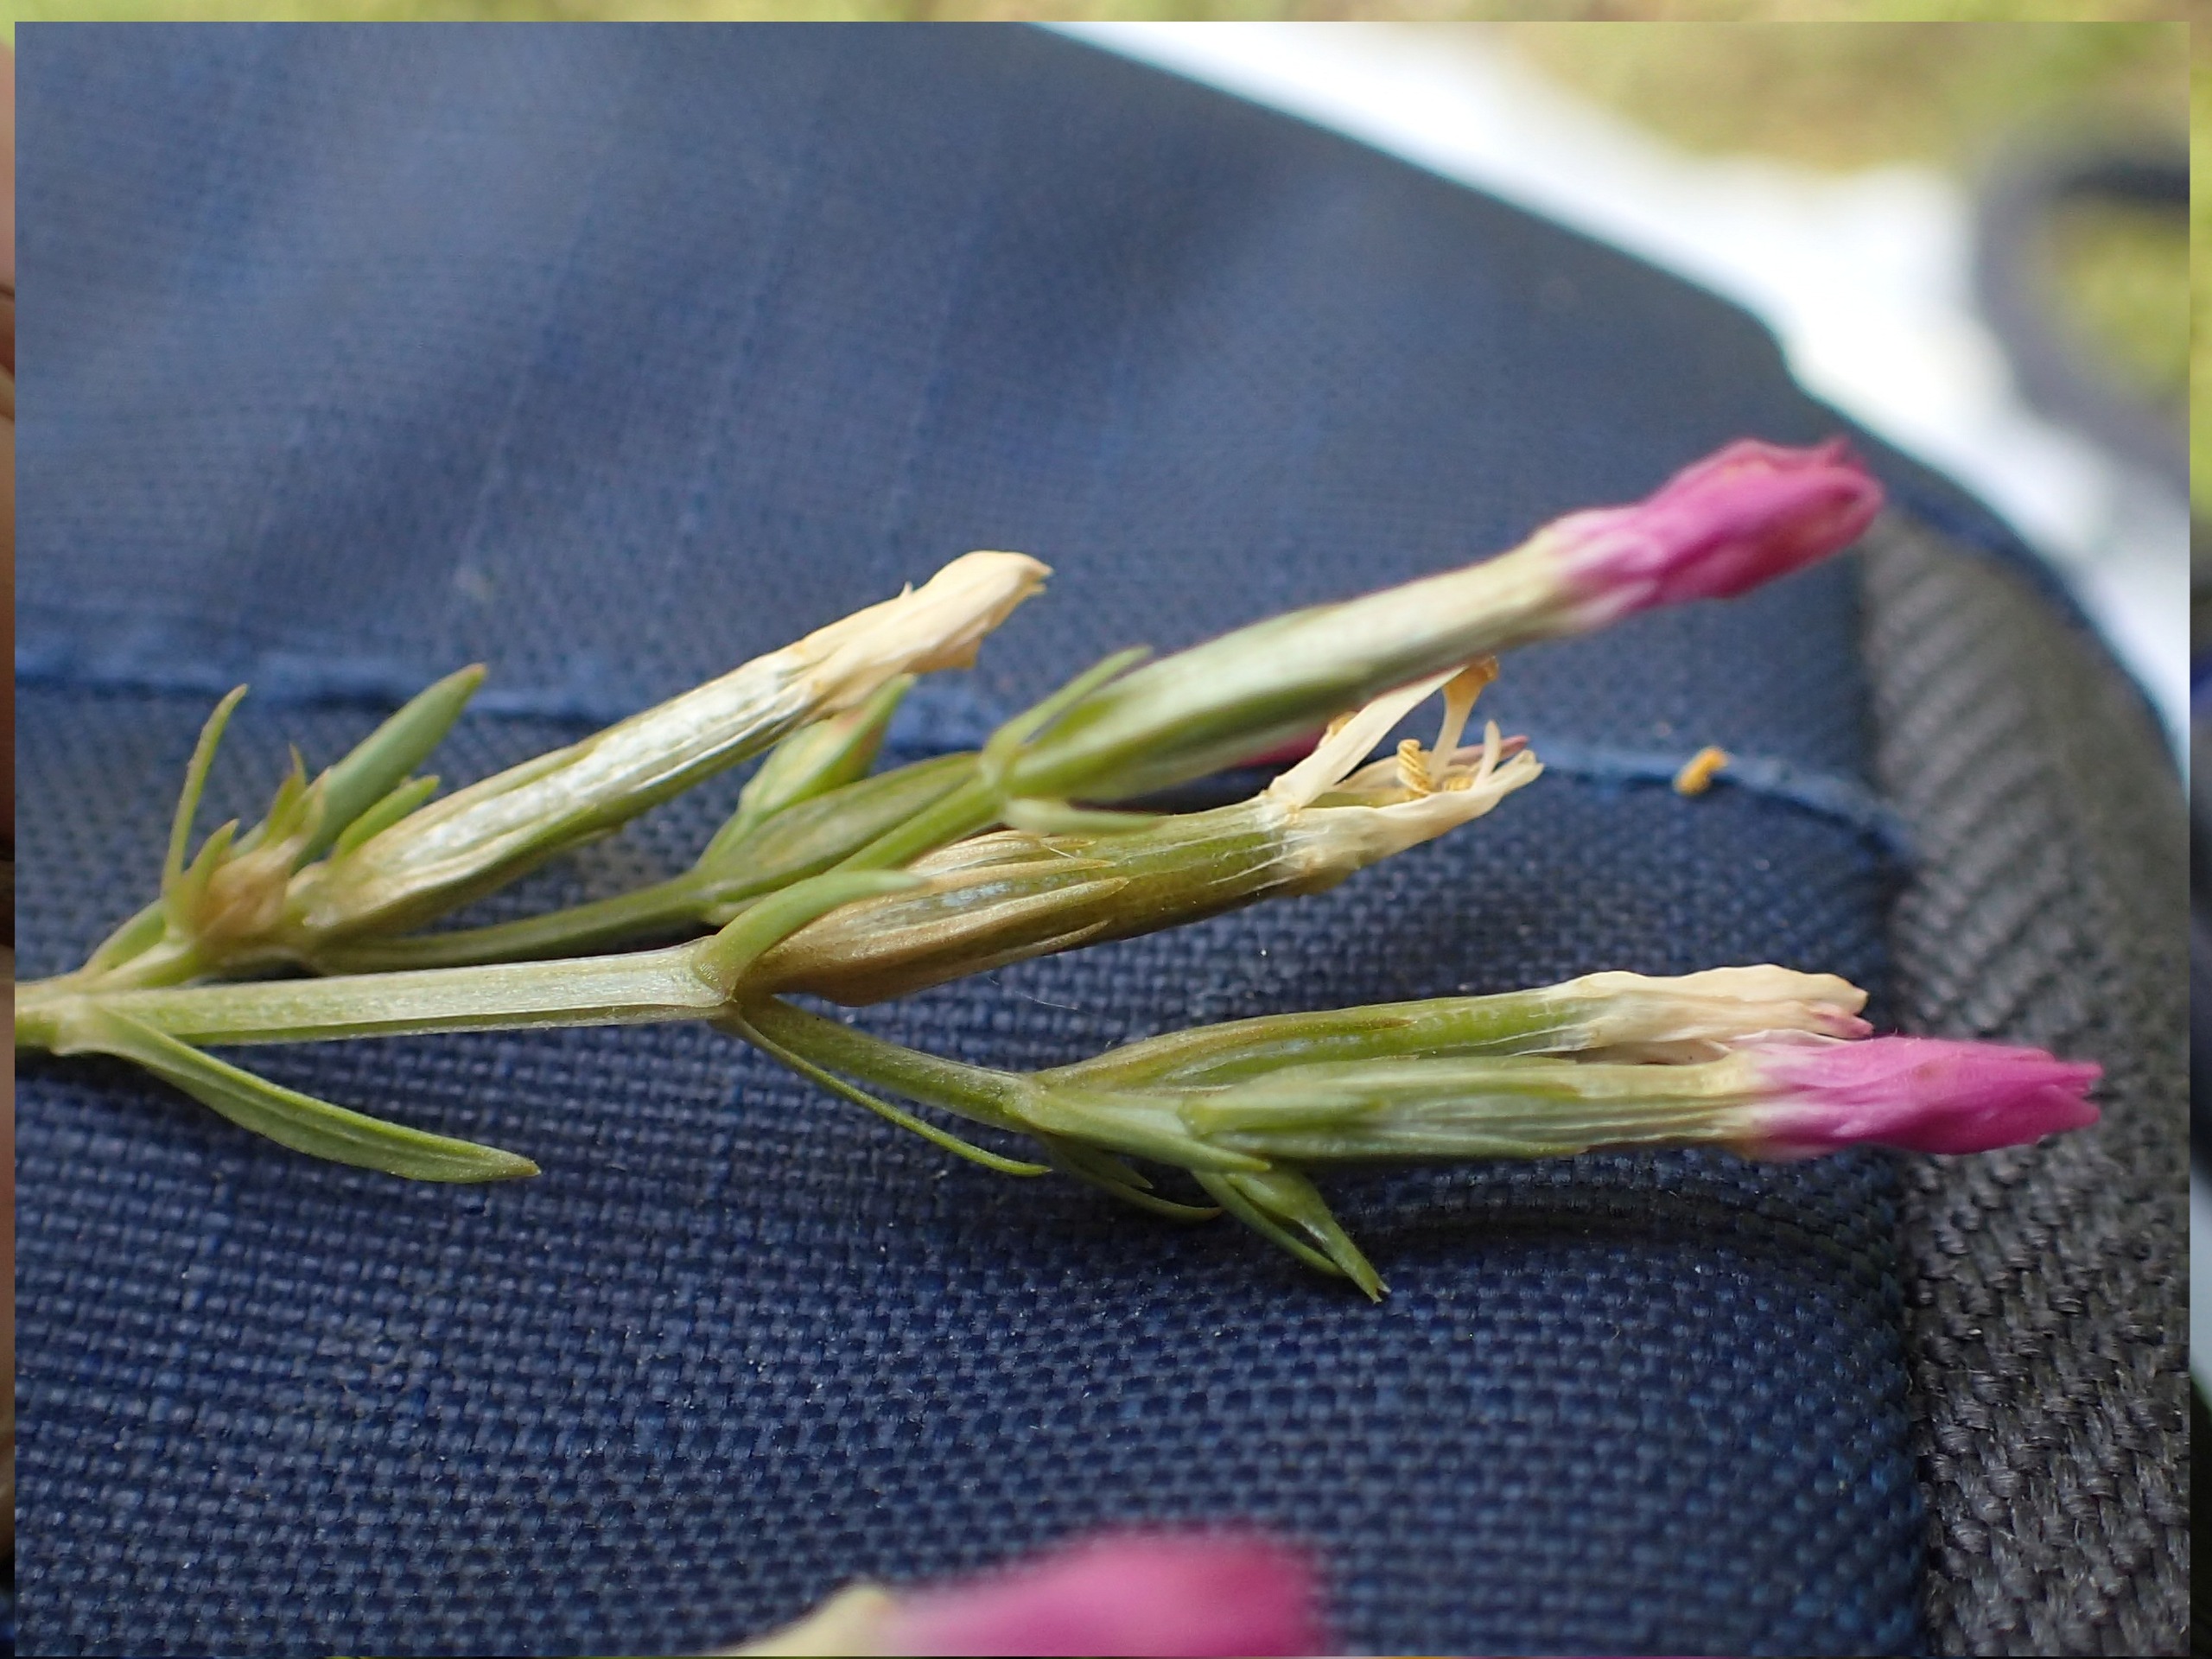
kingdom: Plantae
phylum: Tracheophyta
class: Magnoliopsida
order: Gentianales
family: Gentianaceae
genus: Centaurium
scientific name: Centaurium erythraea
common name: Mark-tusindgylden
